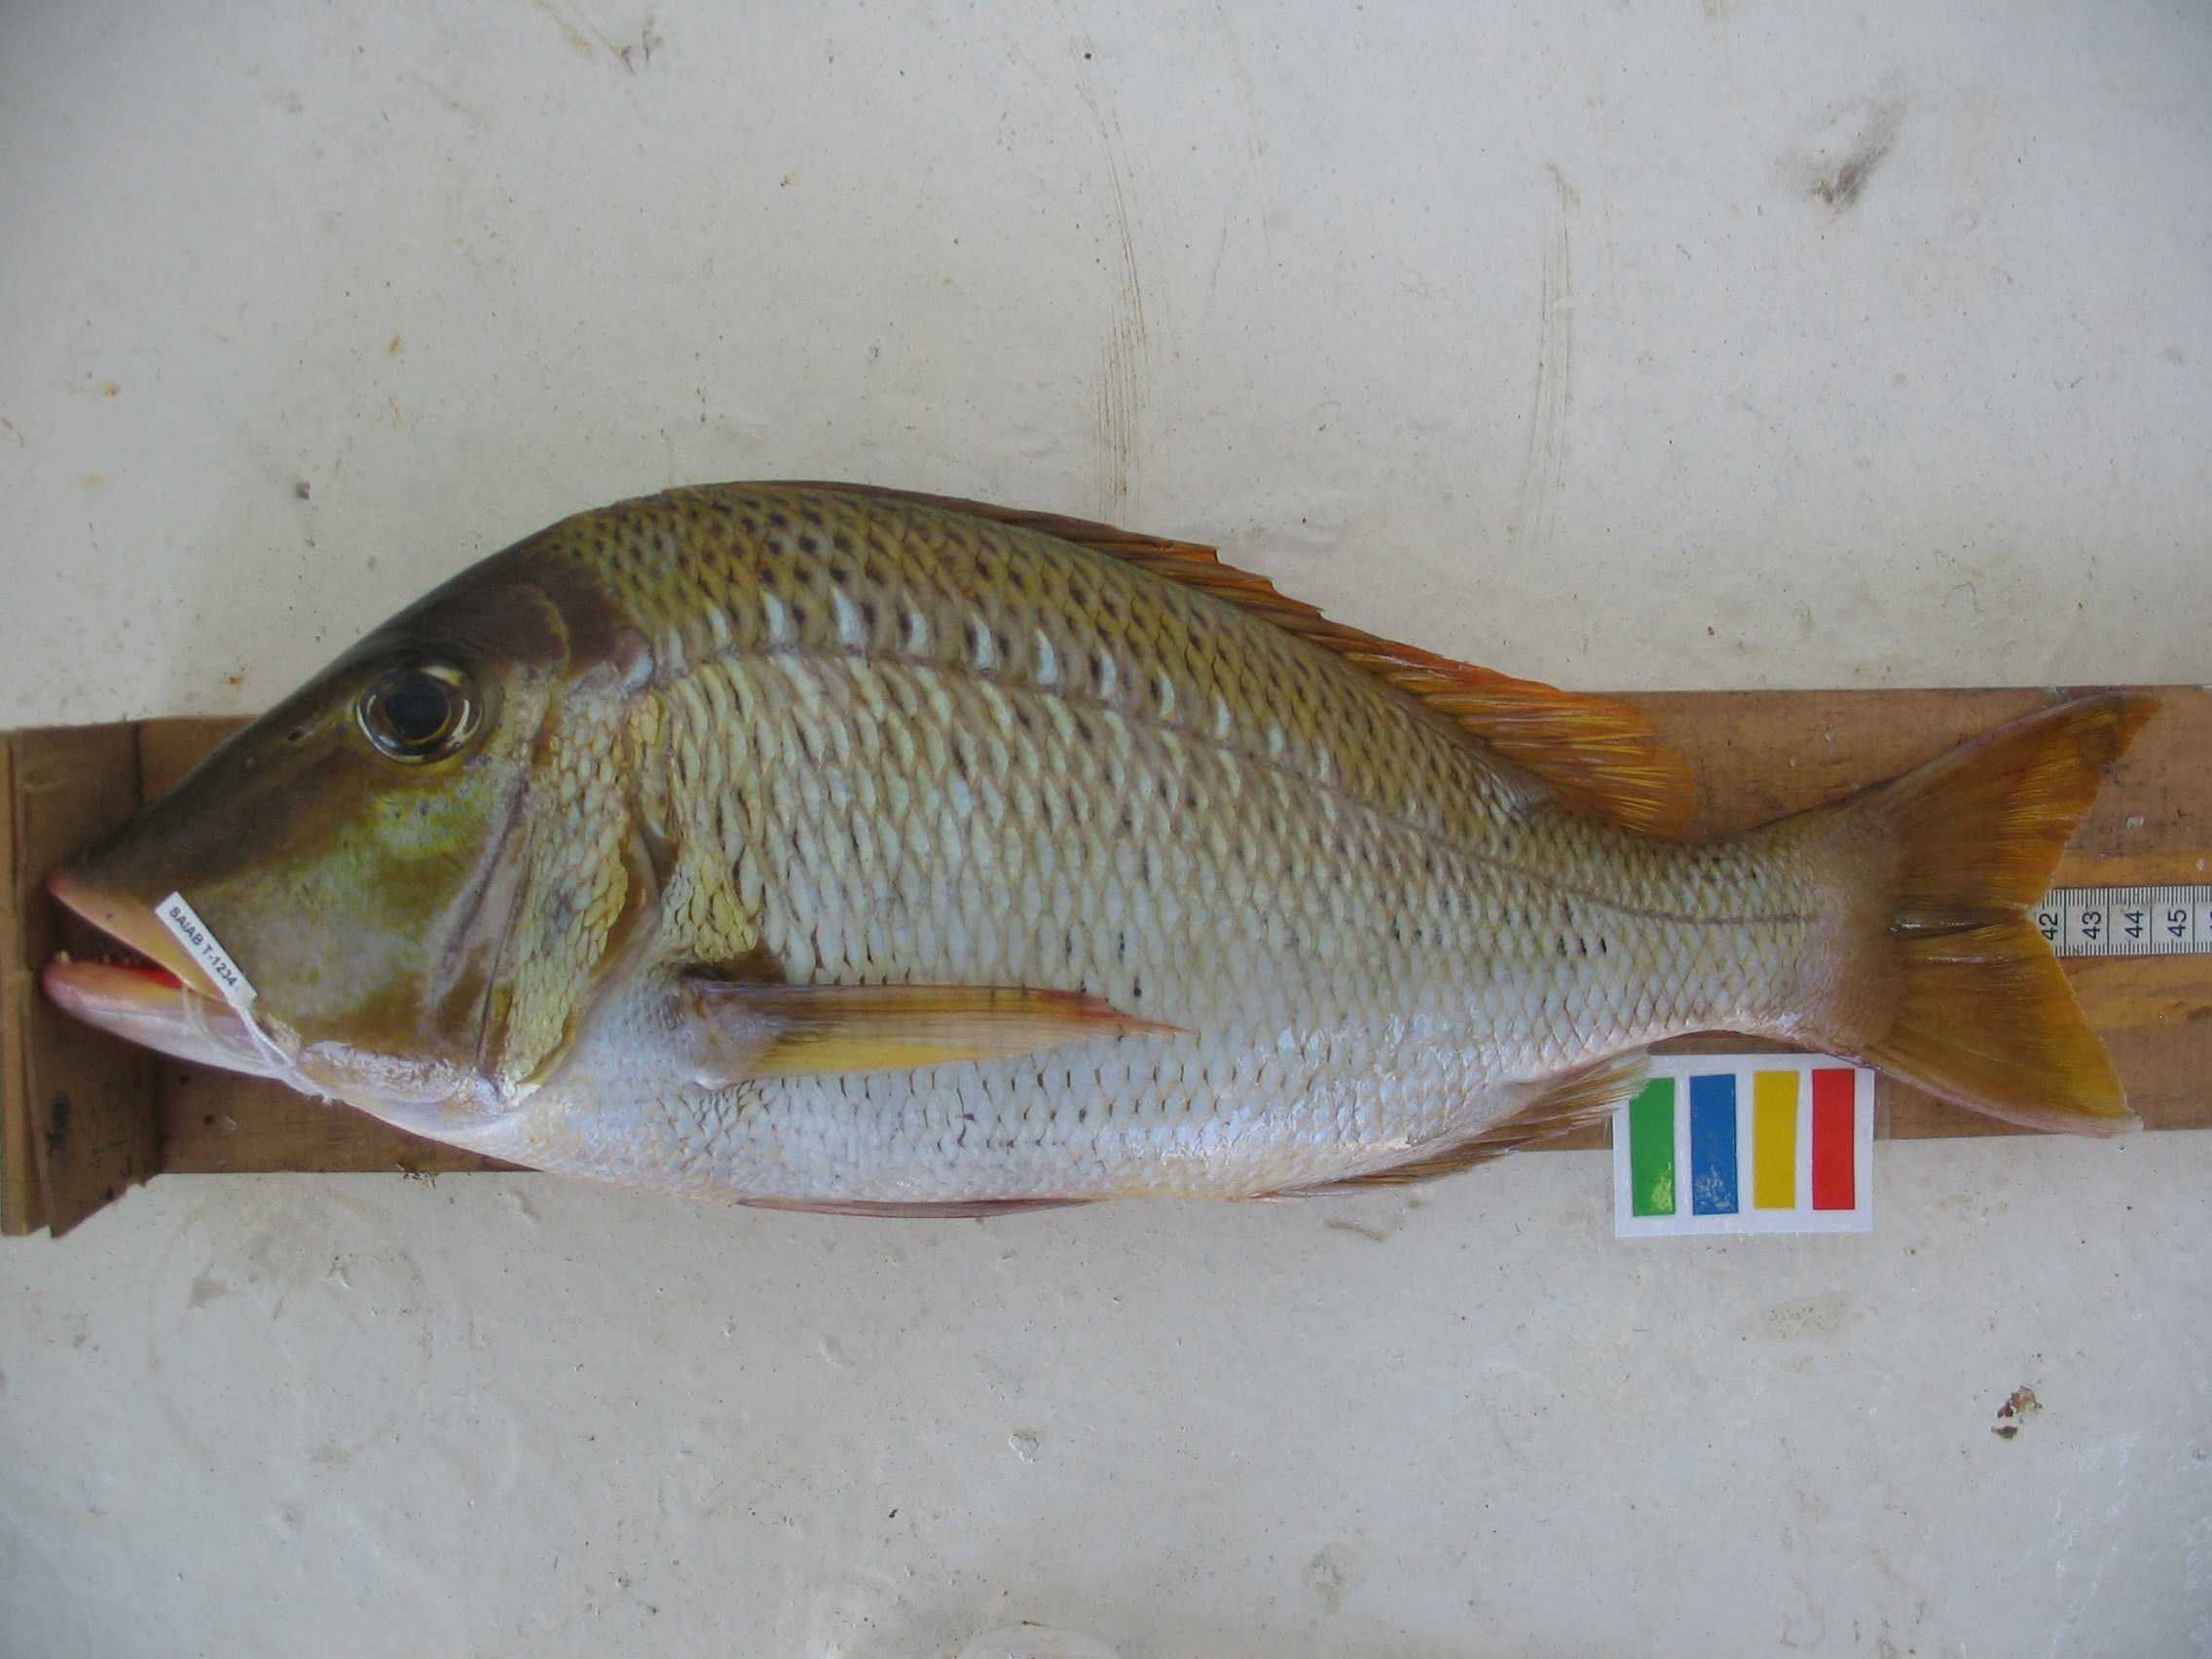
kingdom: Animalia
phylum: Chordata
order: Perciformes
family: Lethrinidae
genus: Lethrinus
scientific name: Lethrinus crocineus
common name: Yellowtail emperor
